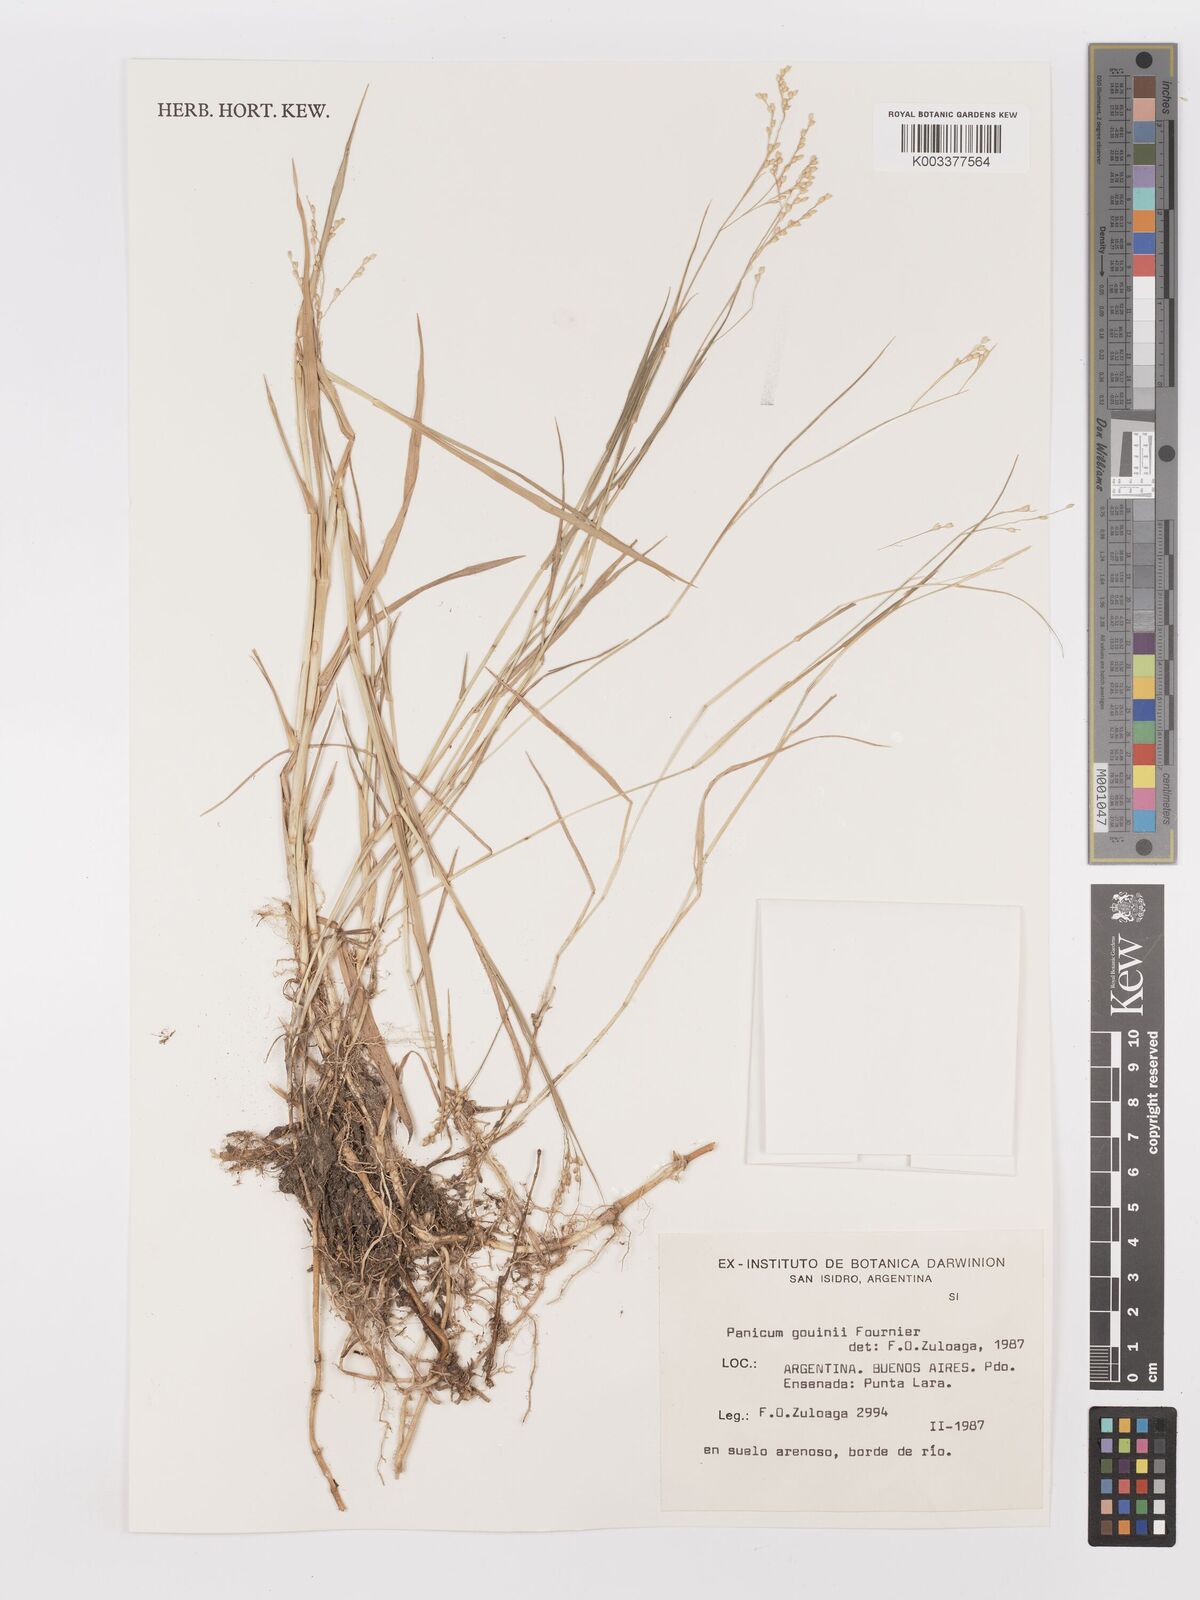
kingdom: Plantae
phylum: Tracheophyta
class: Liliopsida
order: Poales
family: Poaceae
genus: Urochloa
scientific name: Urochloa rudis
